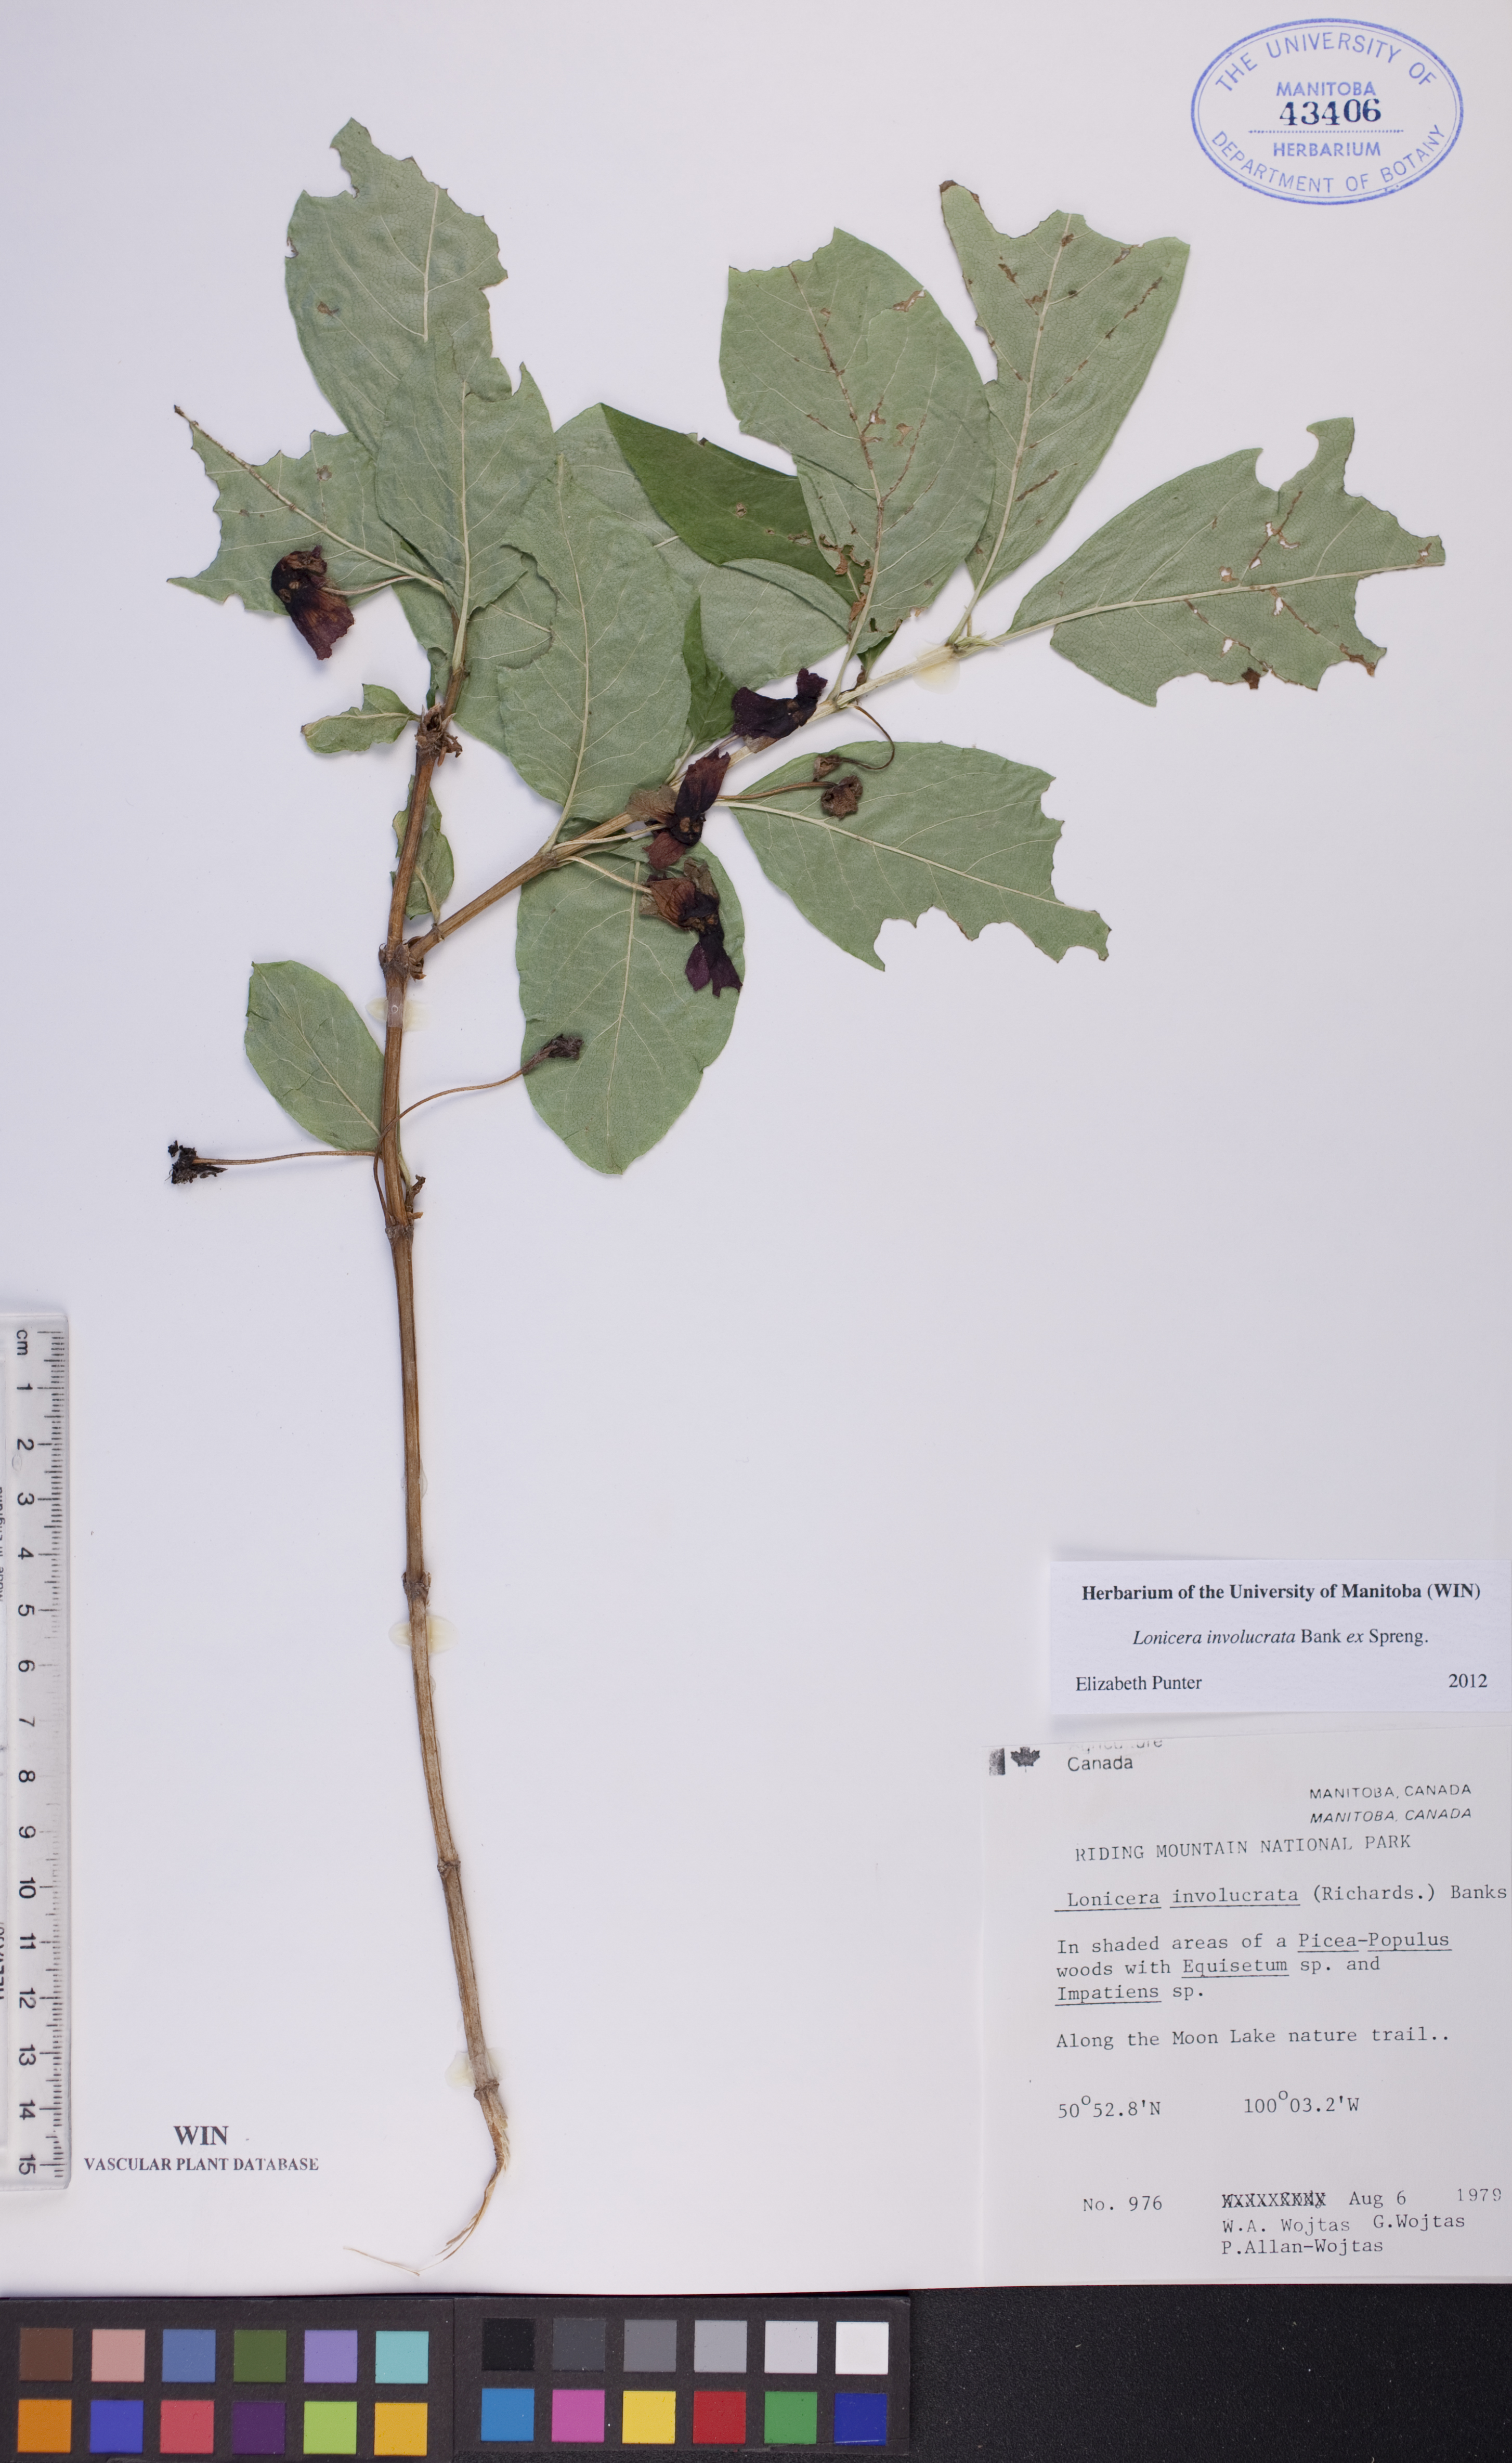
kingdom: Plantae
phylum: Tracheophyta
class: Magnoliopsida
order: Dipsacales
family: Caprifoliaceae
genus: Lonicera
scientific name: Lonicera involucrata
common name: Californian honeysuckle
